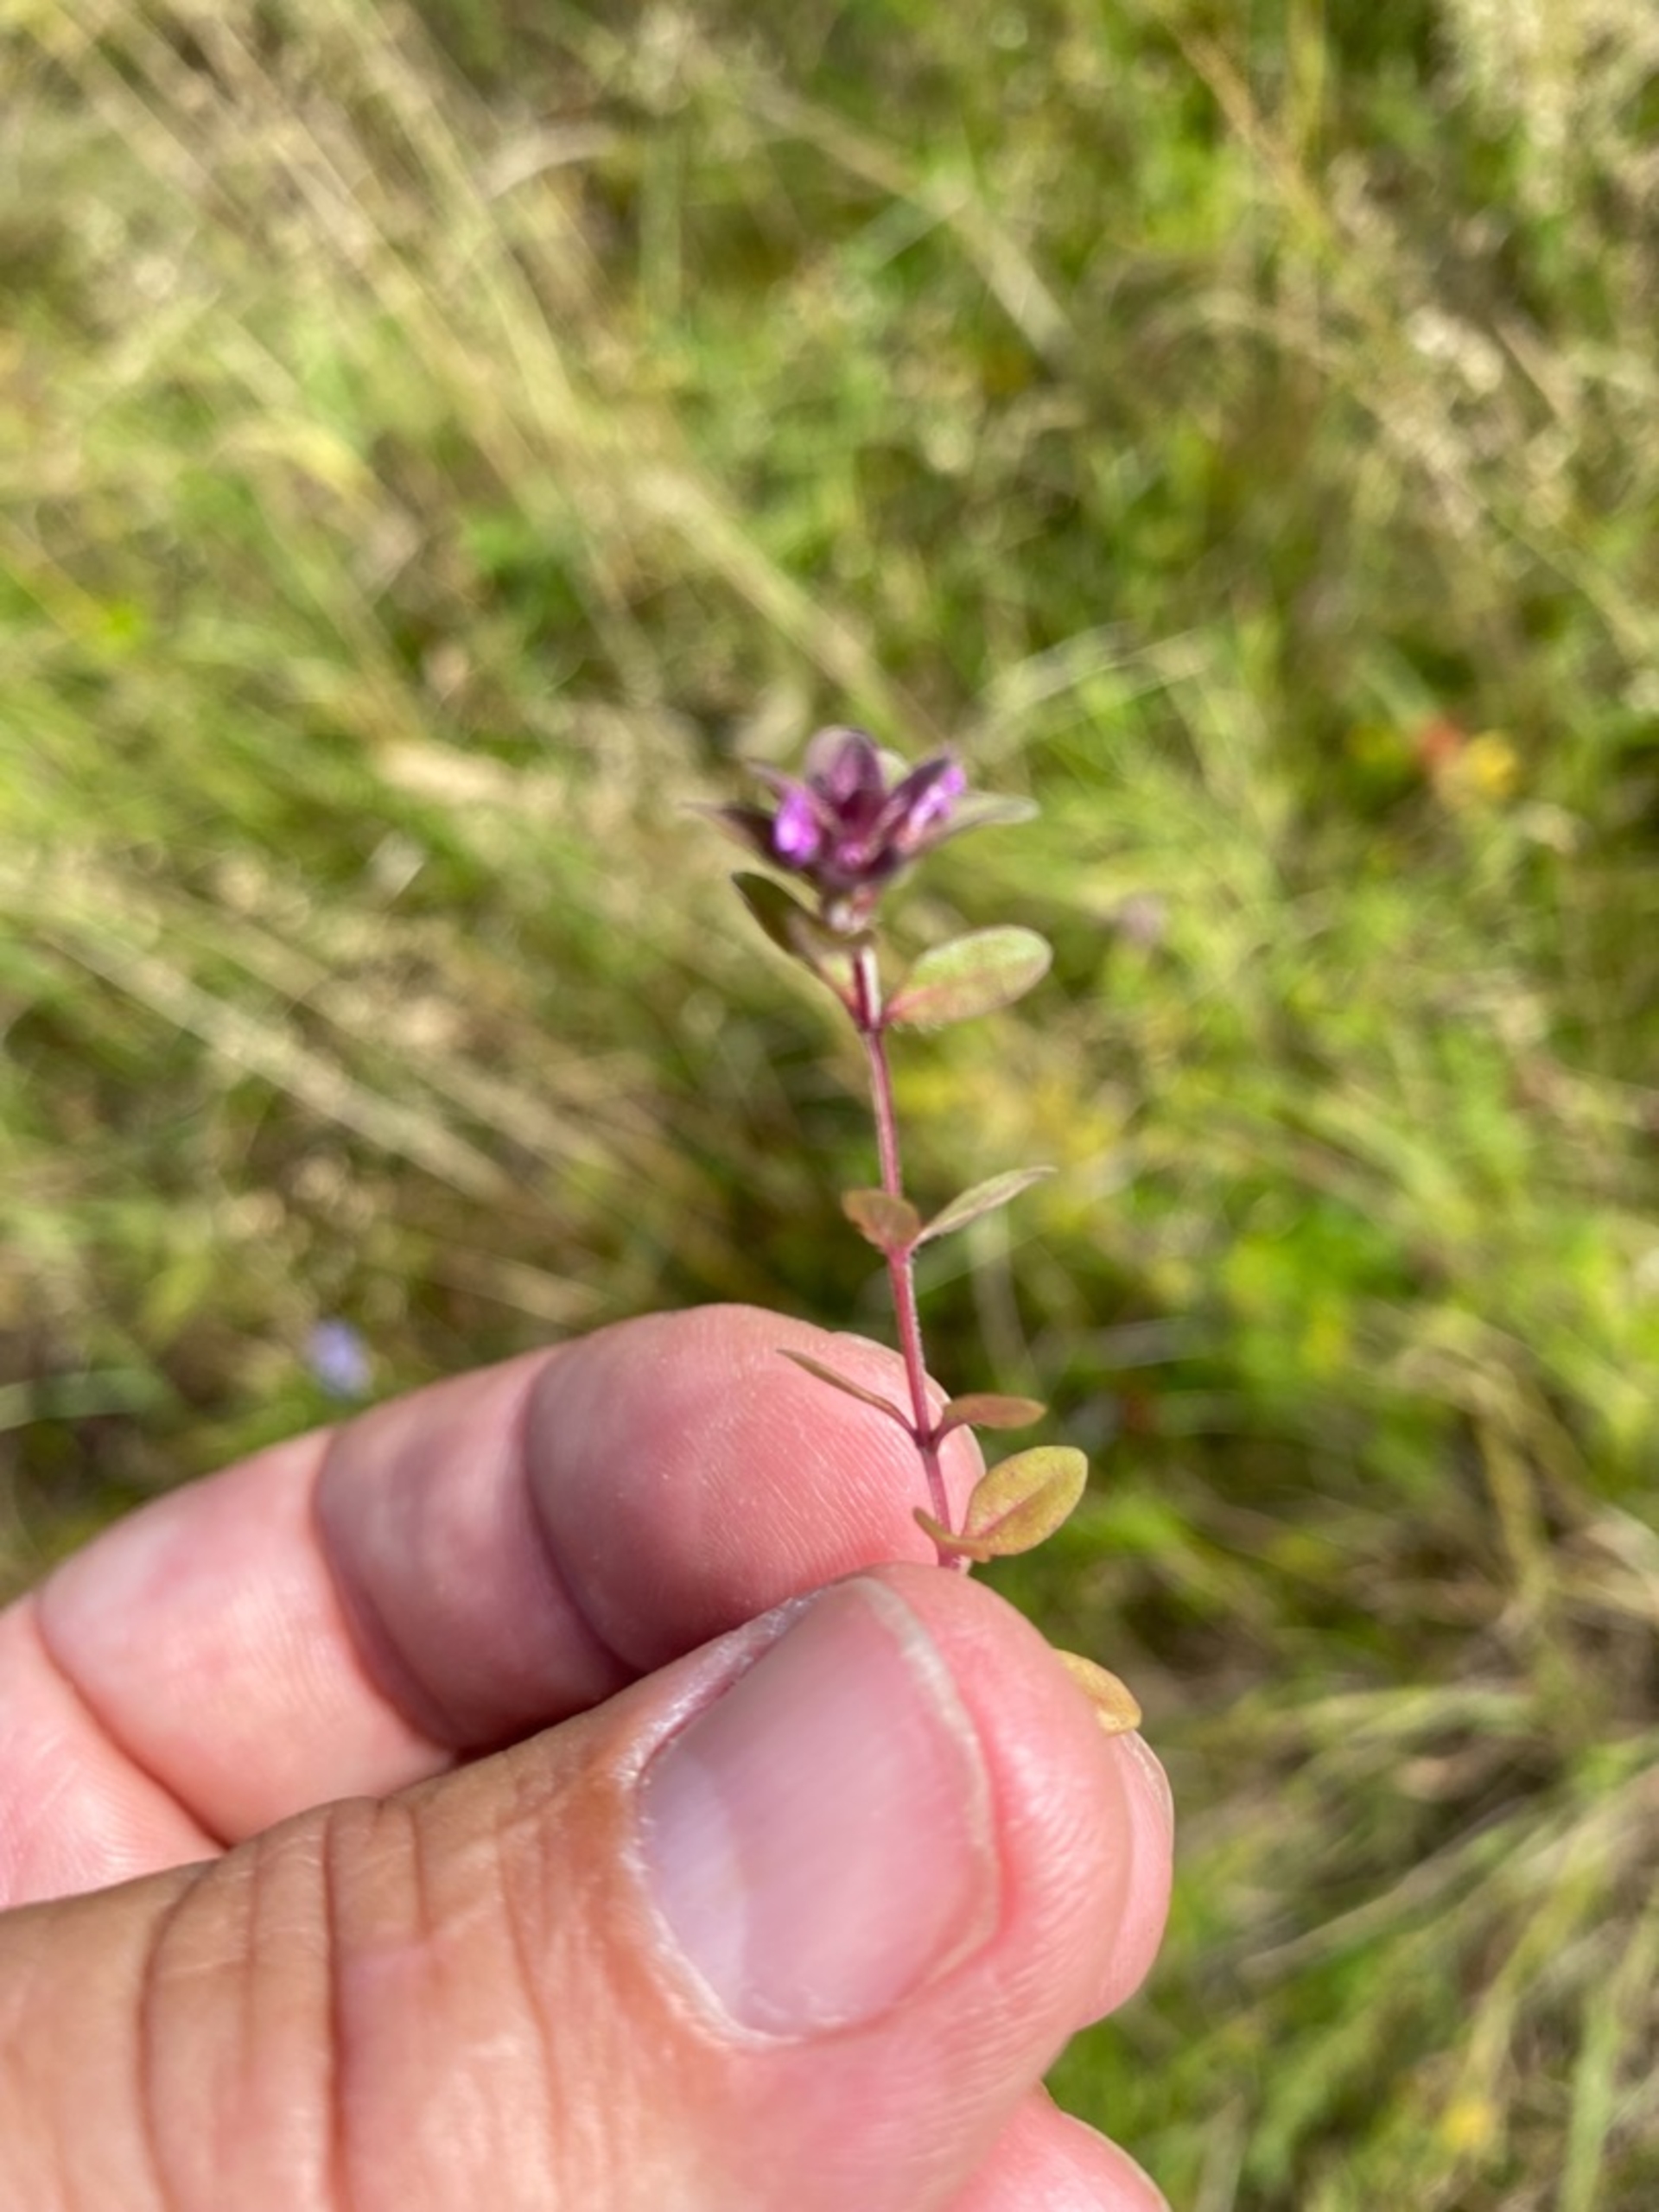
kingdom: Plantae
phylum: Tracheophyta
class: Magnoliopsida
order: Lamiales
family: Lamiaceae
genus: Thymus
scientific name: Thymus pulegioides
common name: Bredbladet timian
